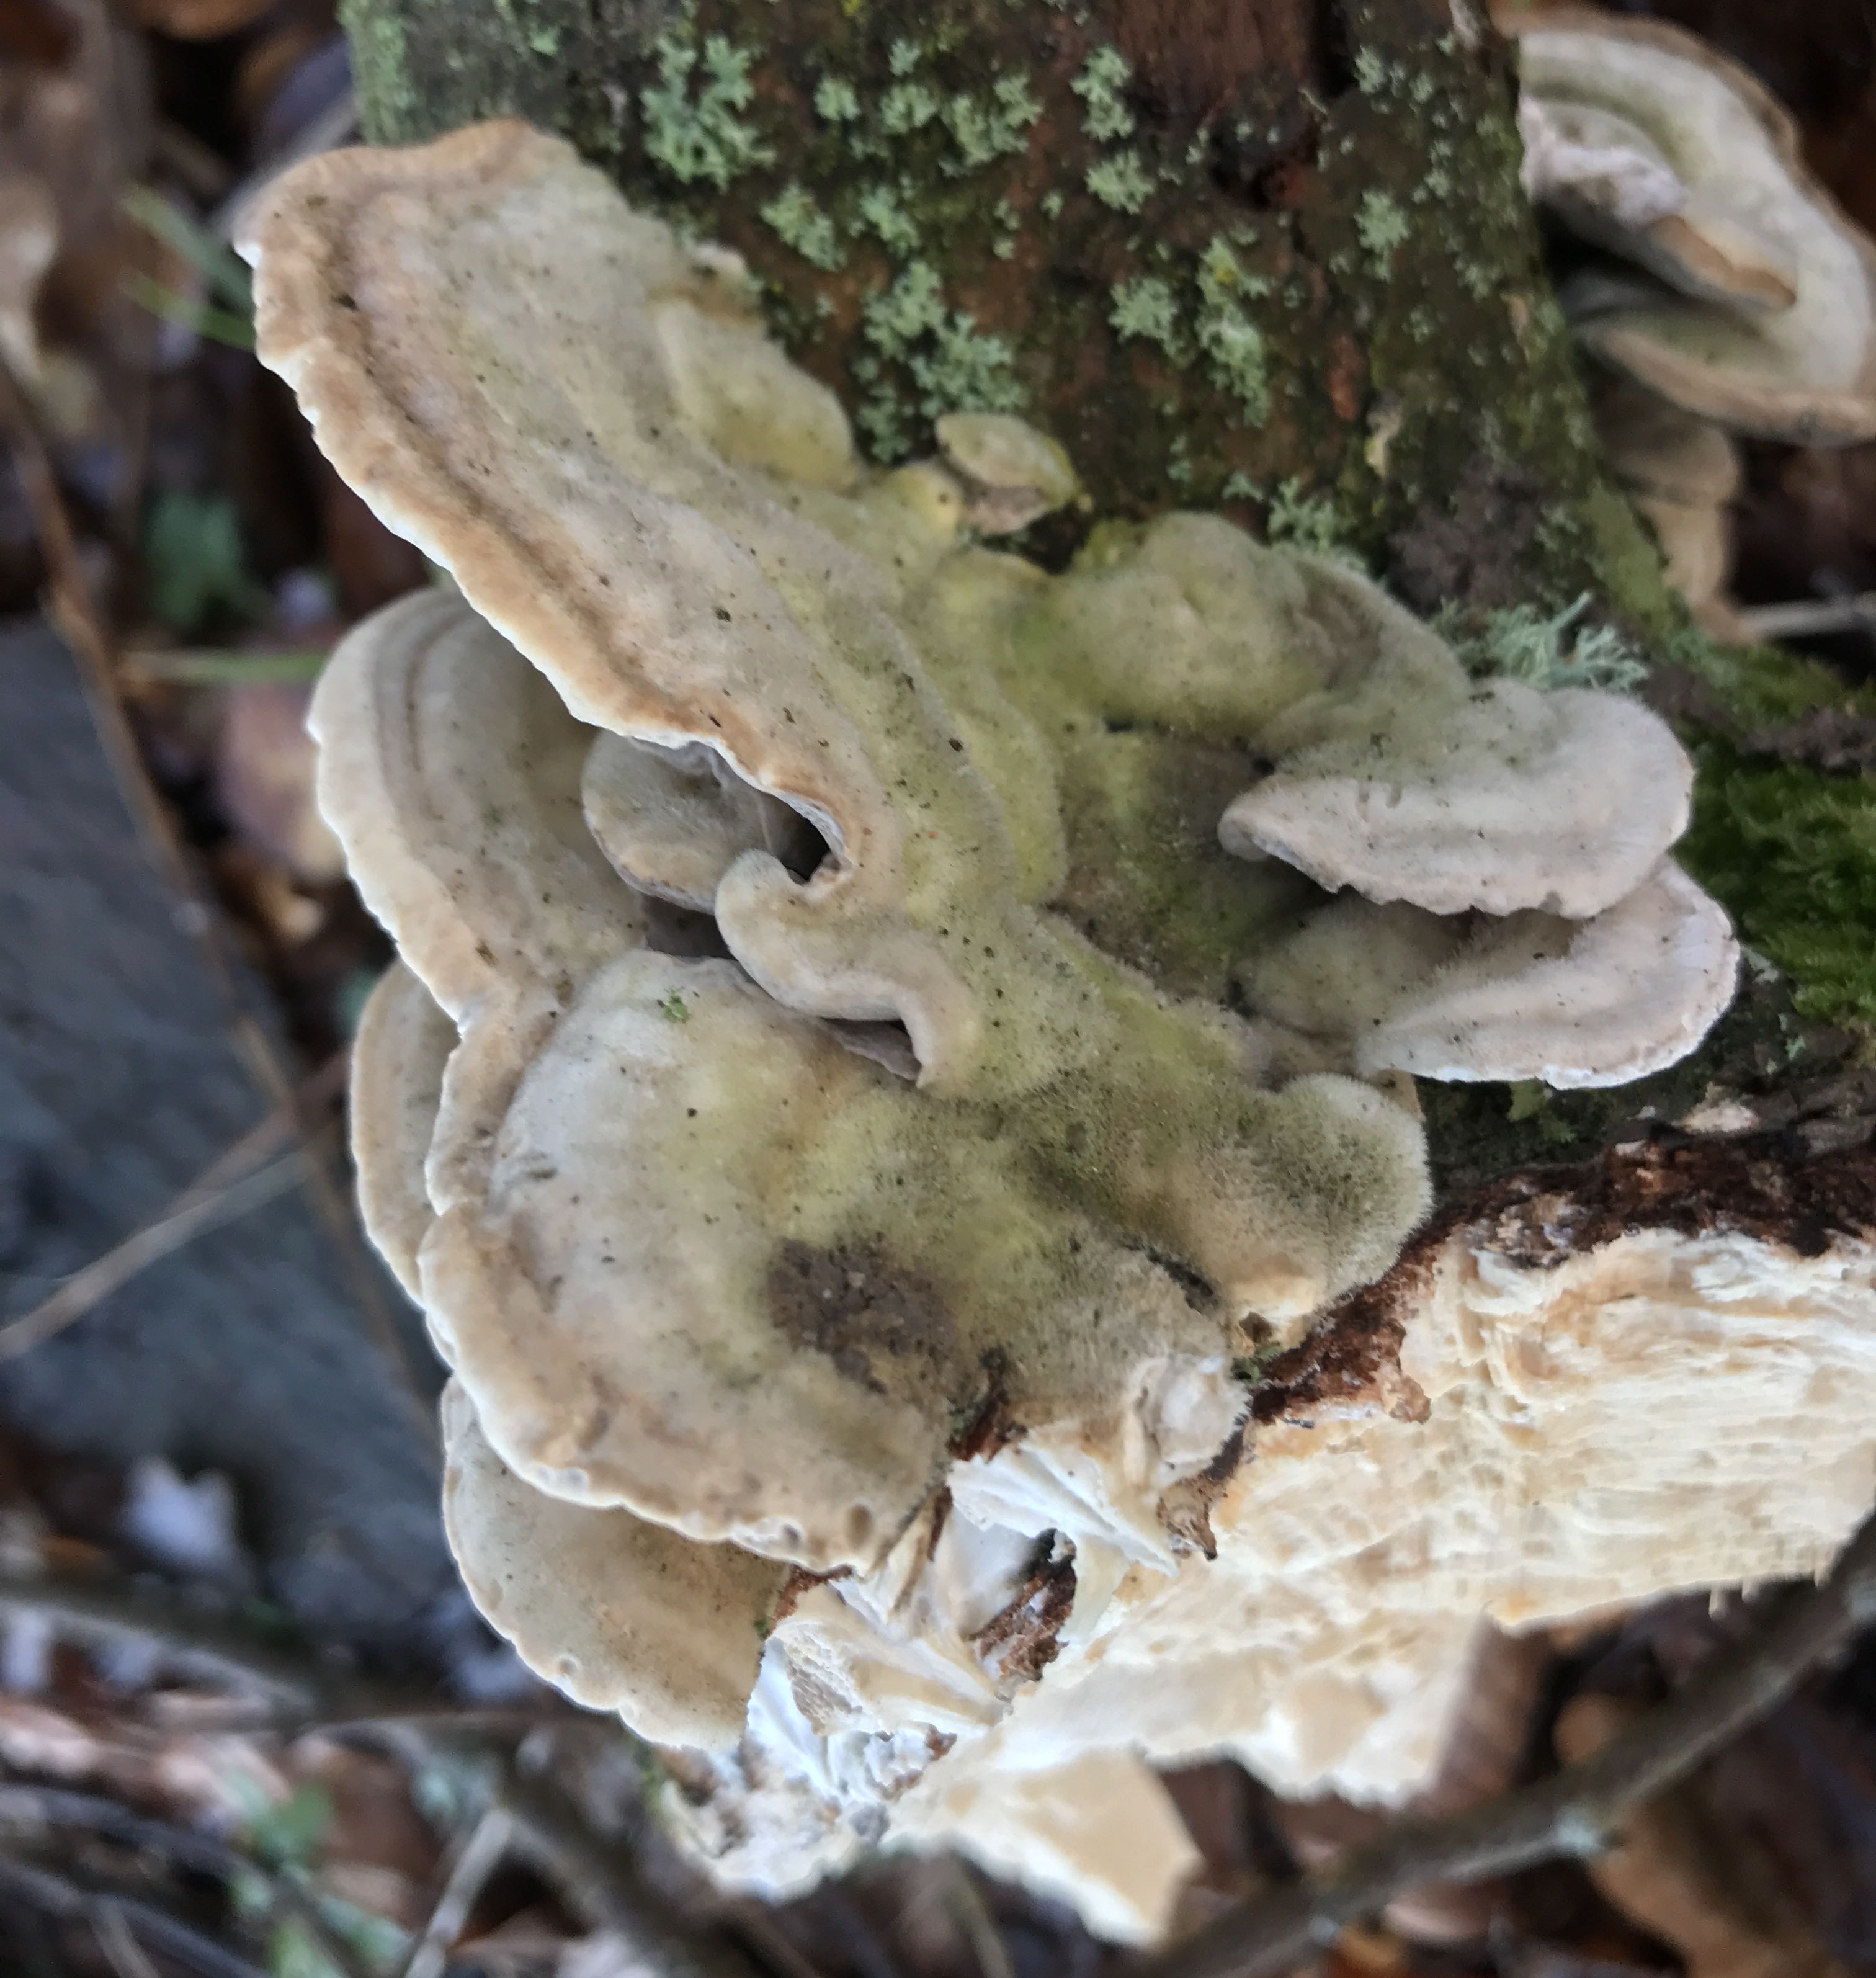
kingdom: Fungi
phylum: Basidiomycota
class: Agaricomycetes
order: Polyporales
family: Polyporaceae
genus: Trametes
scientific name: Trametes hirsuta
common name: håret læderporesvamp
